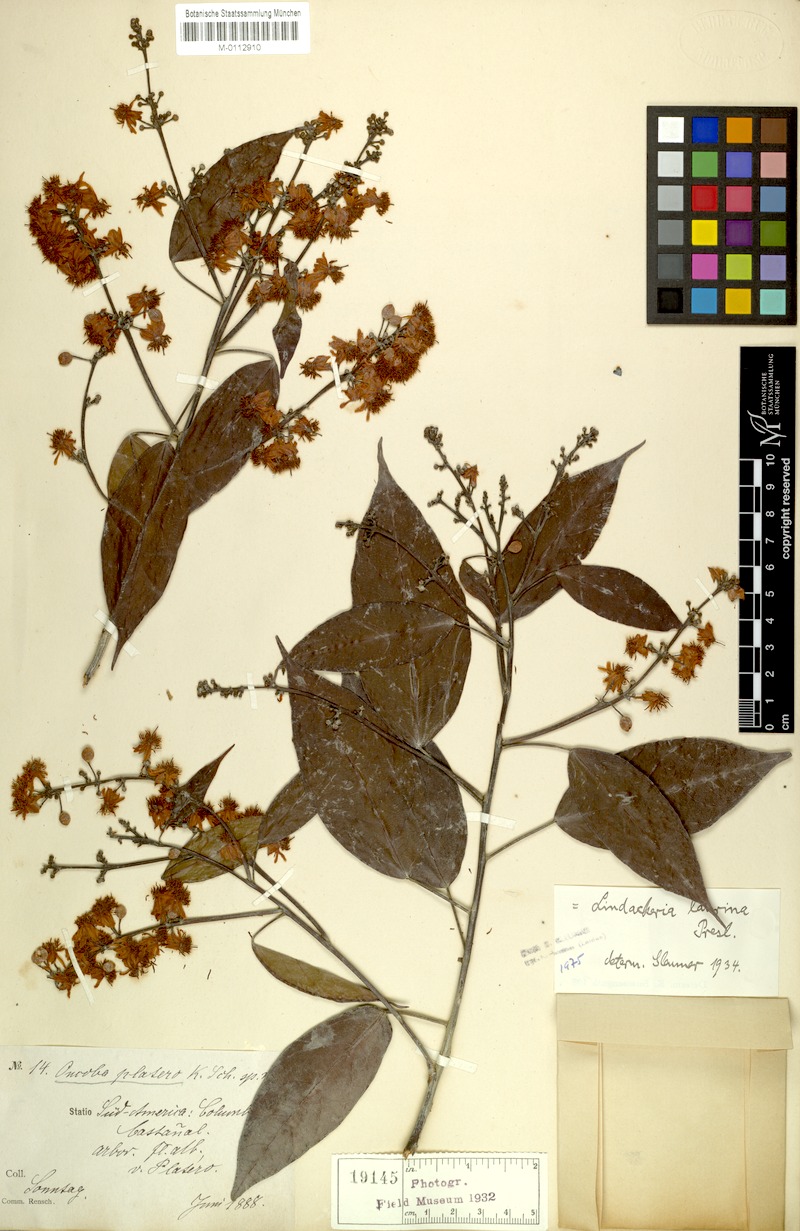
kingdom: Plantae
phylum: Tracheophyta
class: Magnoliopsida
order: Malpighiales
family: Achariaceae
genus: Lindackeria
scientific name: Lindackeria laurina
